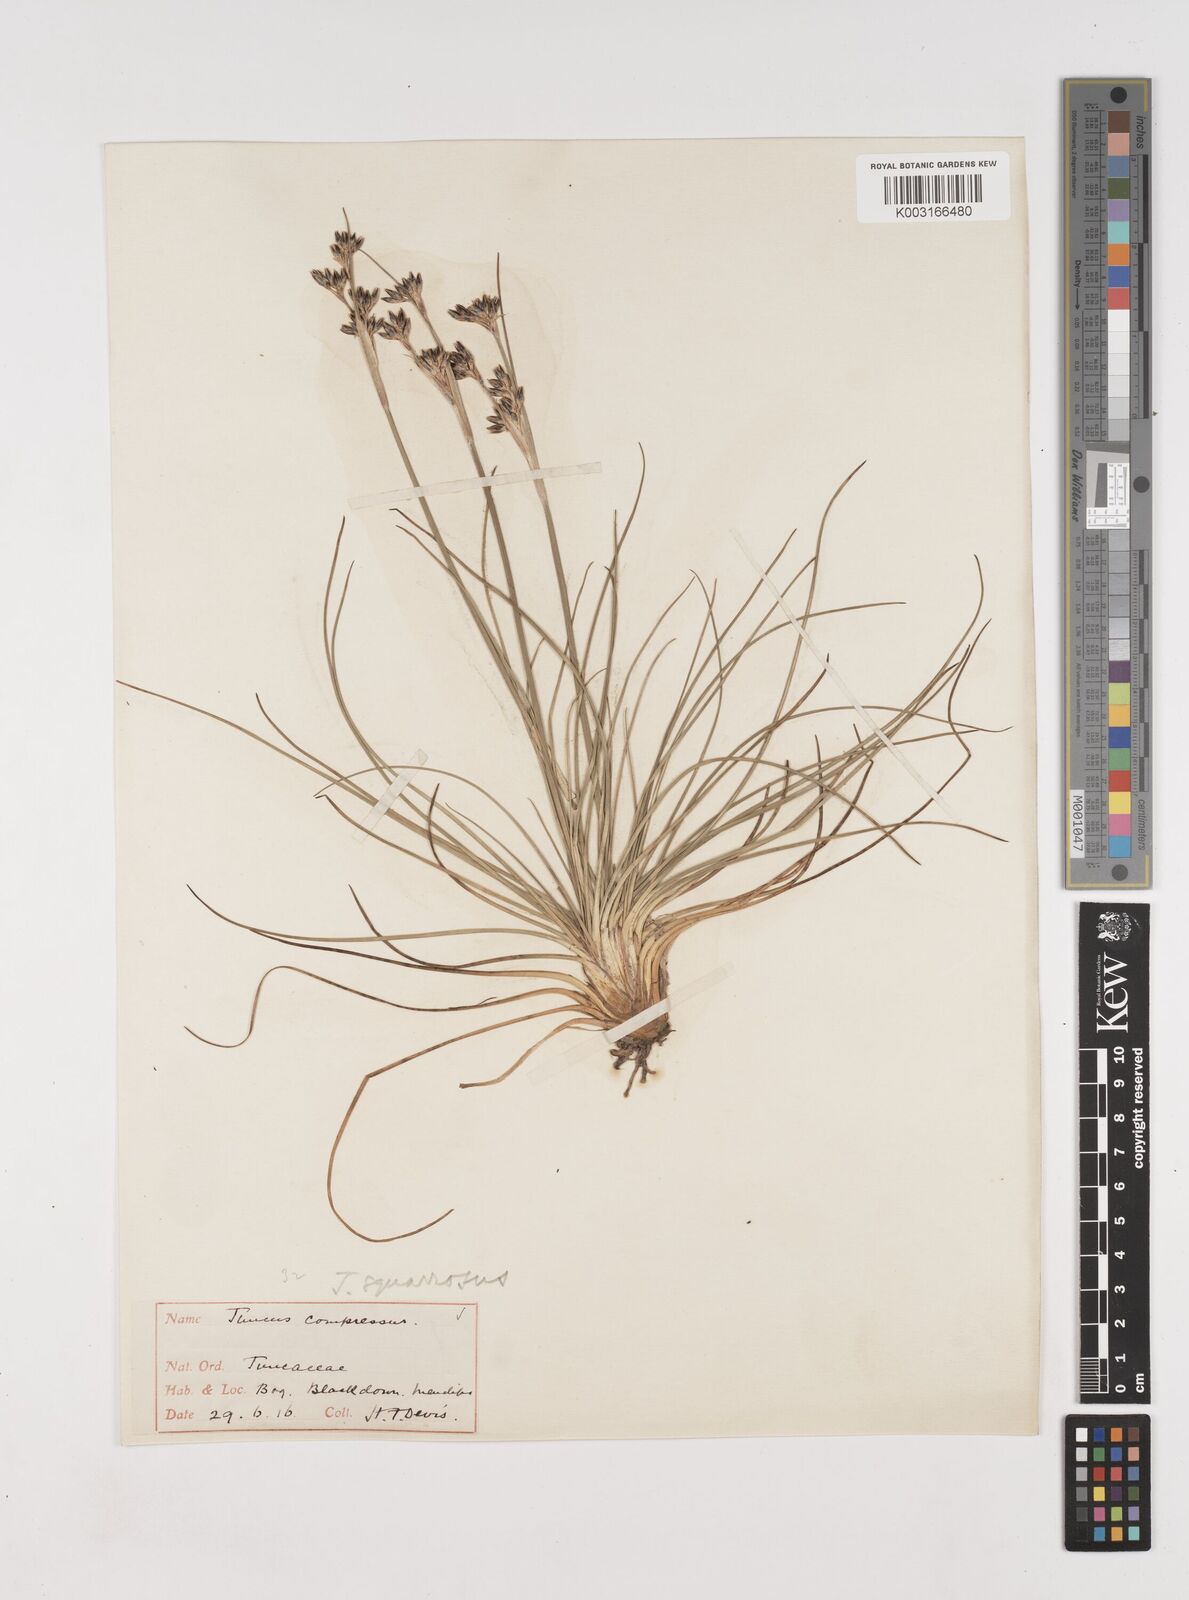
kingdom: Plantae
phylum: Tracheophyta
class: Liliopsida
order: Poales
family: Juncaceae
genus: Juncus
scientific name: Juncus squarrosus
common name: Heath rush
